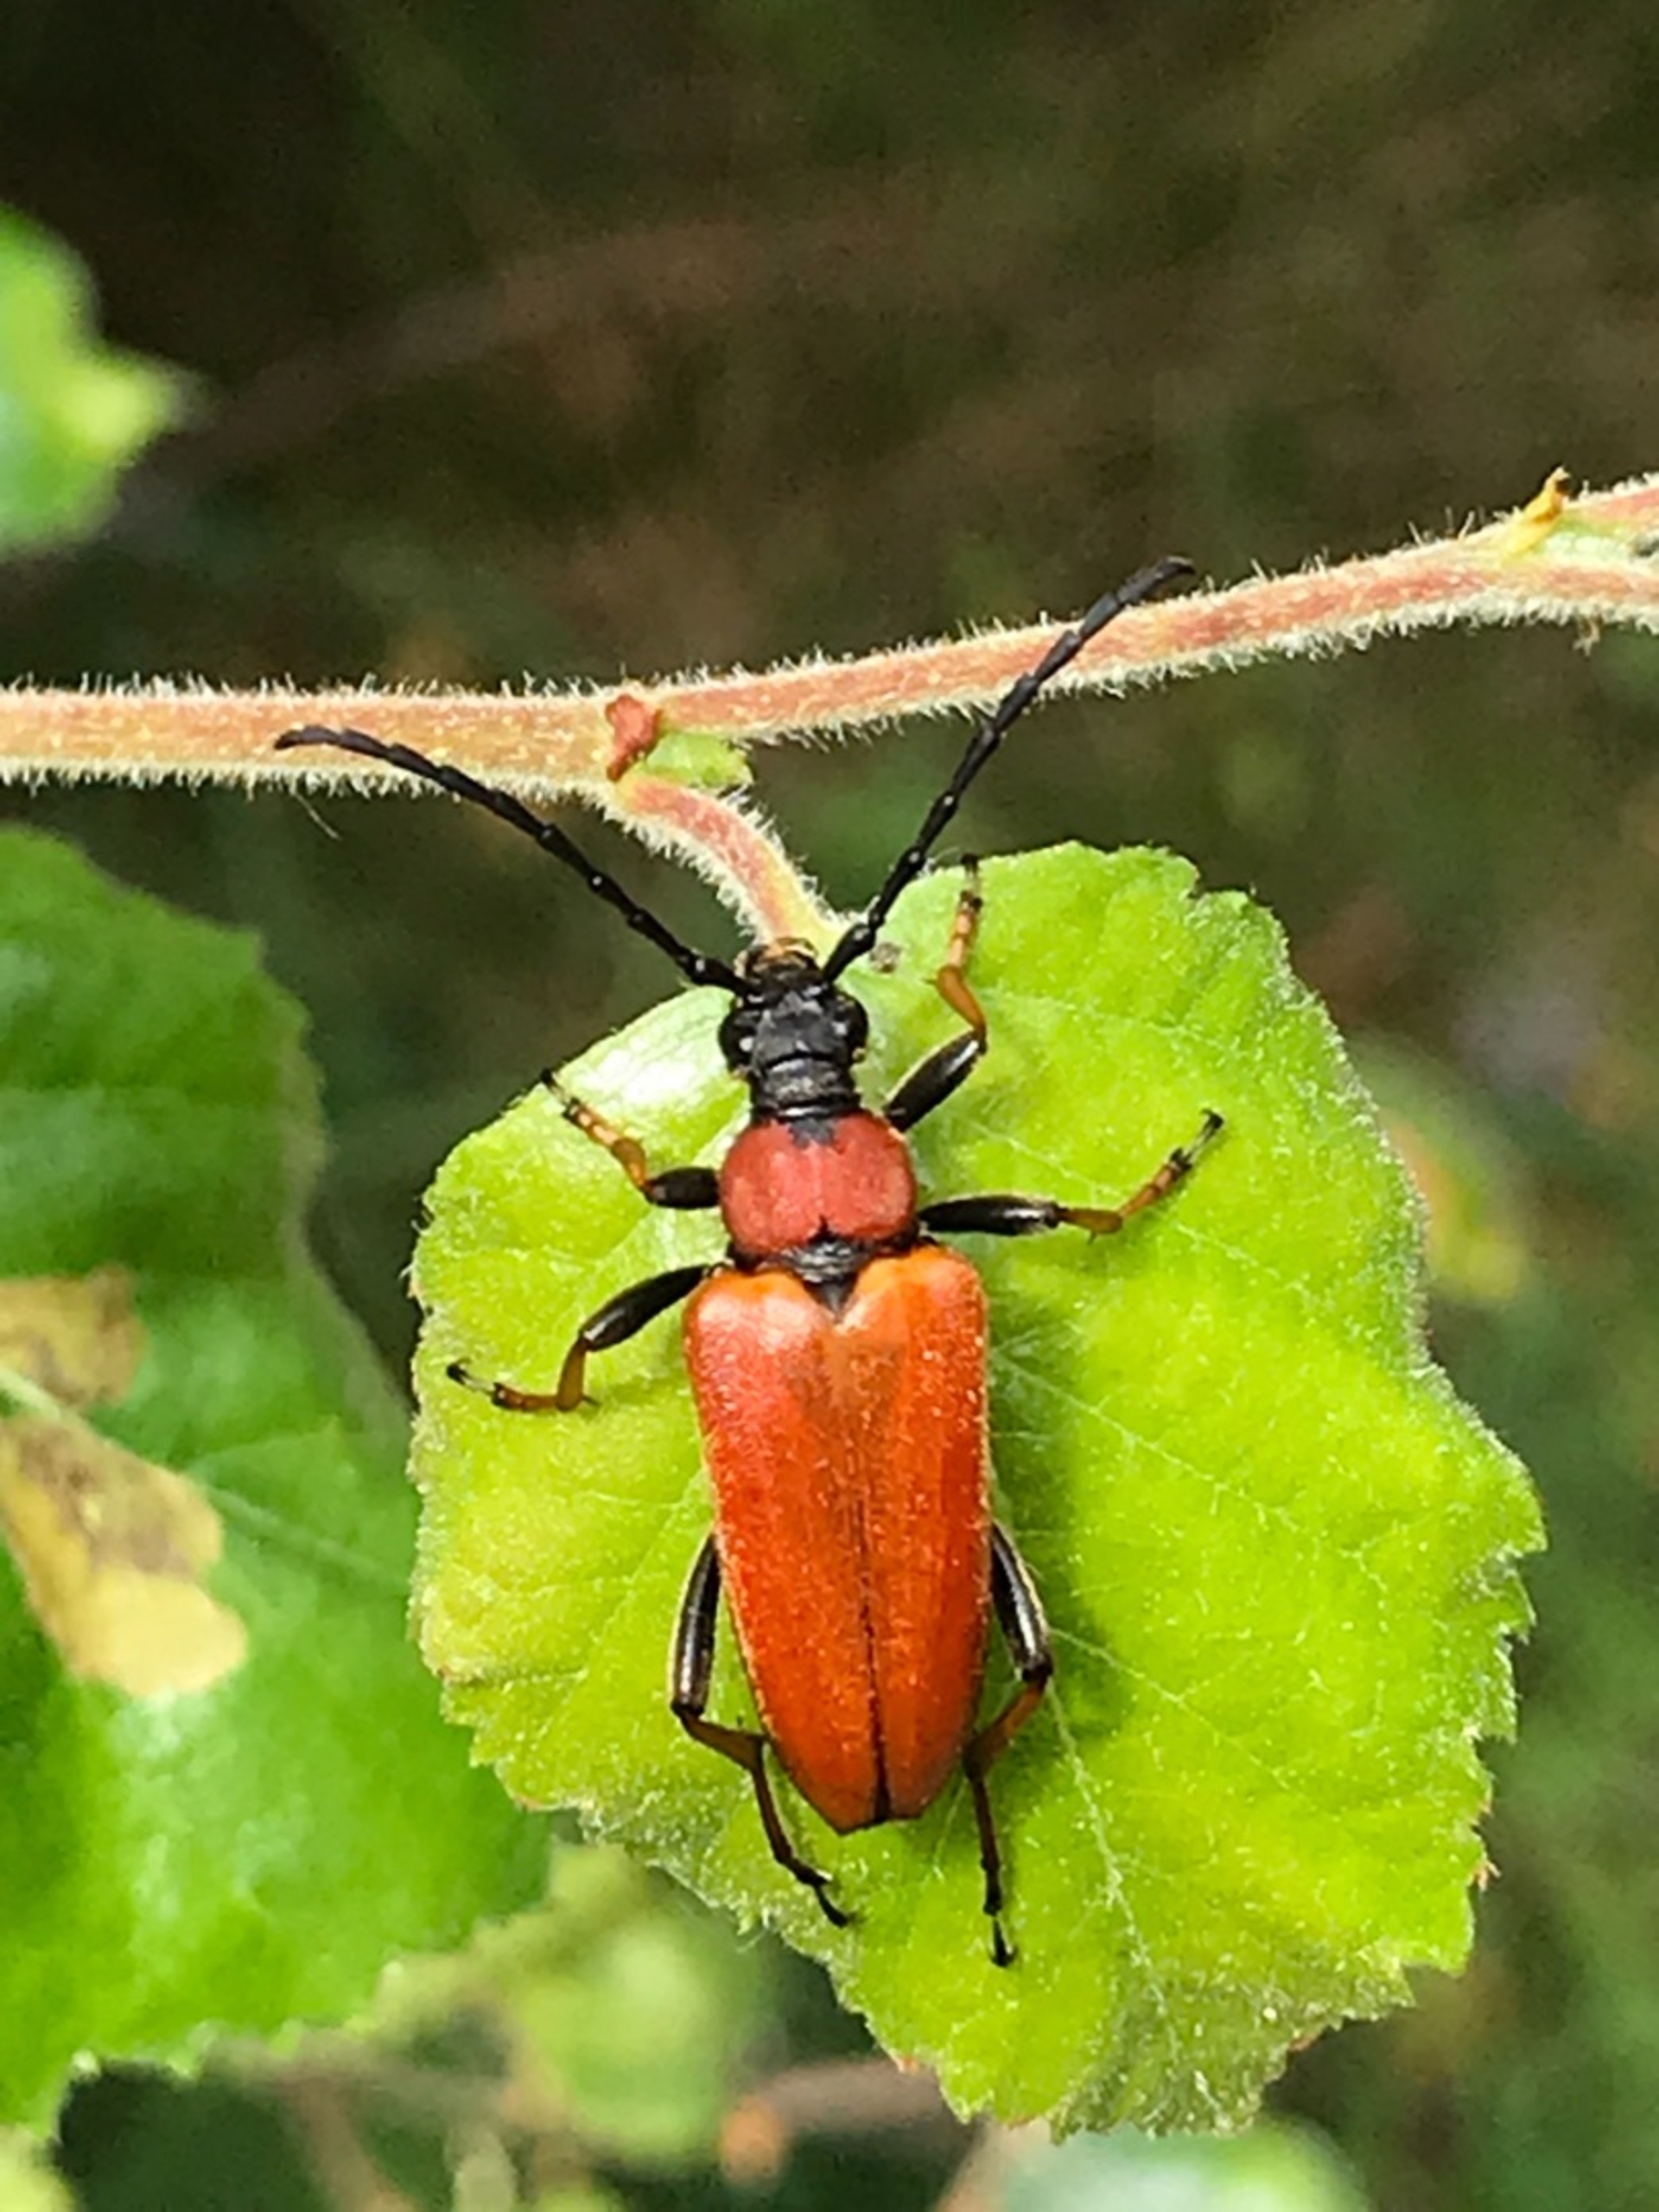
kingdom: Animalia
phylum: Arthropoda
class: Insecta
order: Coleoptera
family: Cerambycidae
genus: Stictoleptura
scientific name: Stictoleptura rubra
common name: Rød blomsterbuk
